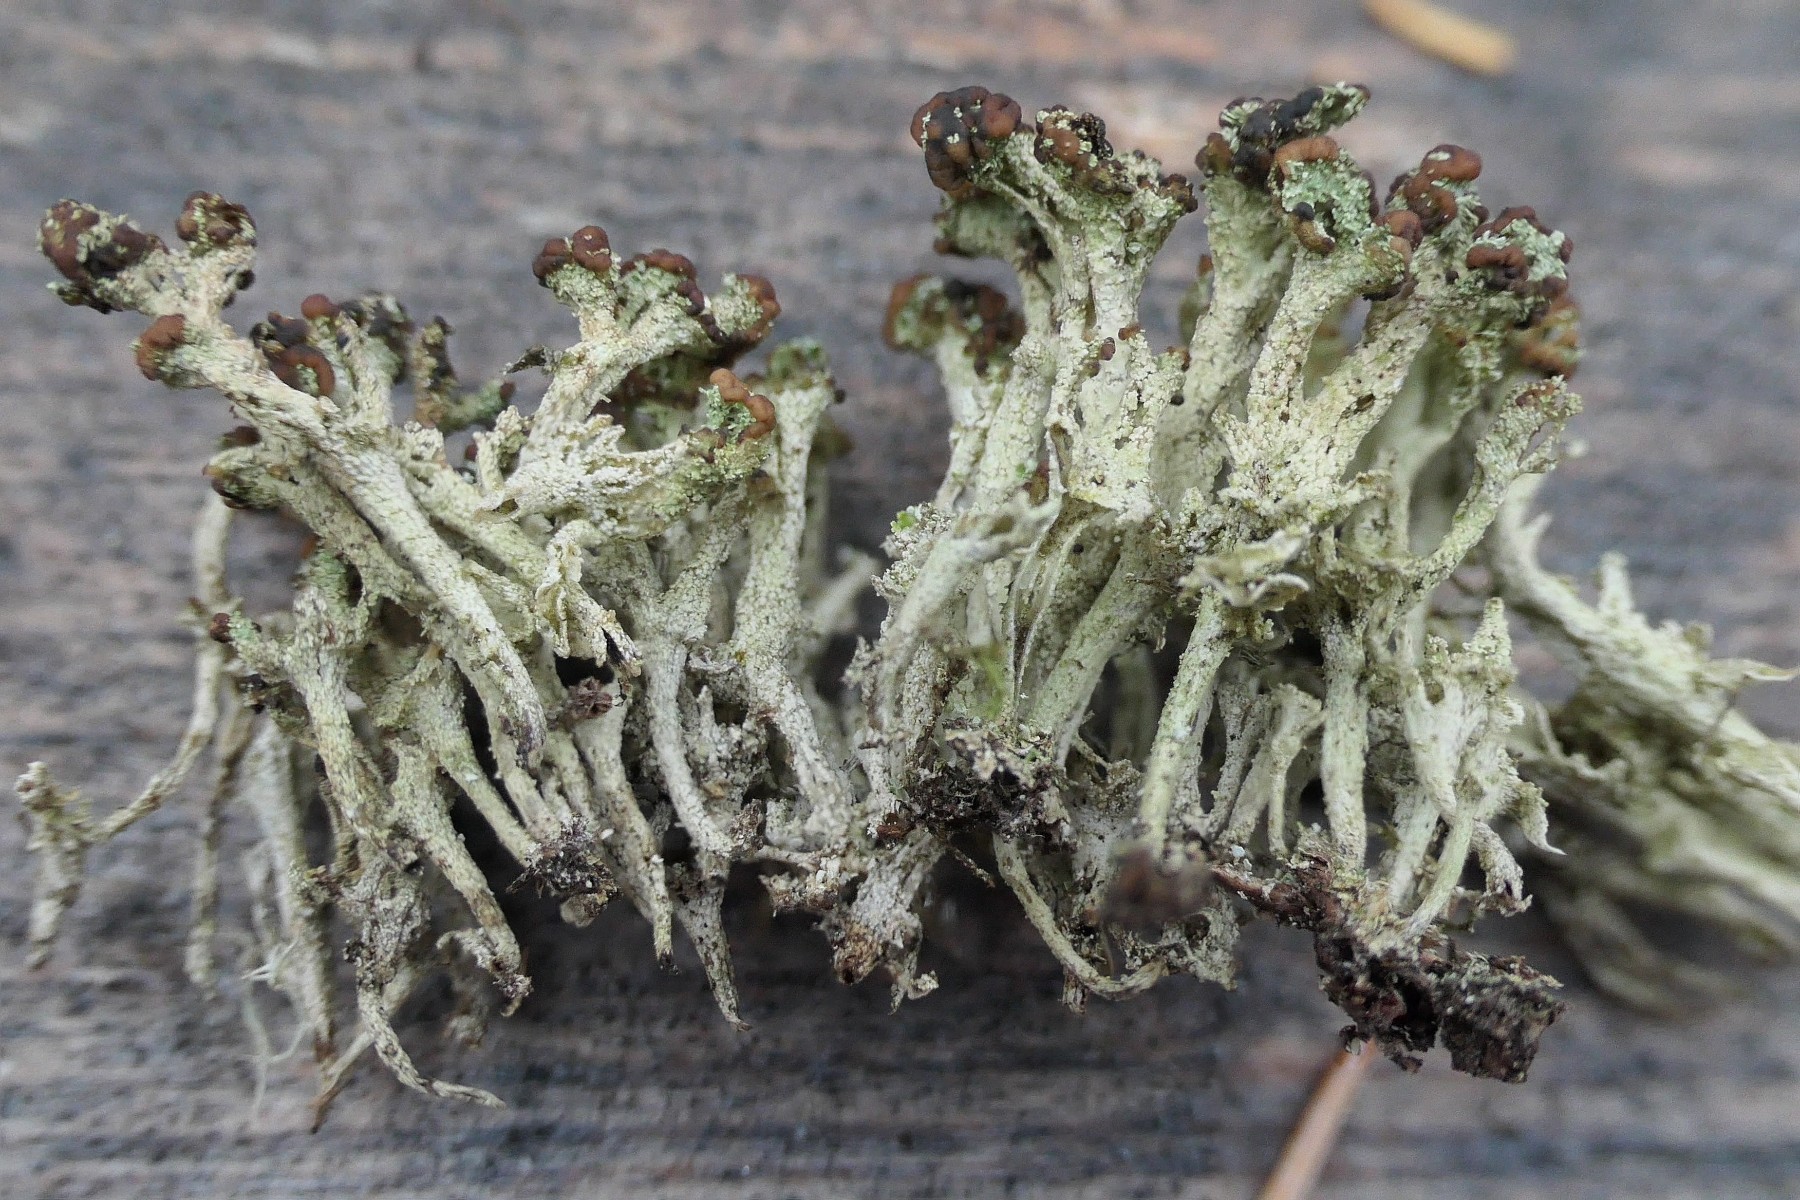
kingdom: Fungi
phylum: Ascomycota
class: Lecanoromycetes
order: Lecanorales
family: Cladoniaceae
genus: Cladonia
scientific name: Cladonia ramulosa
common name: kliddet bægerlav
